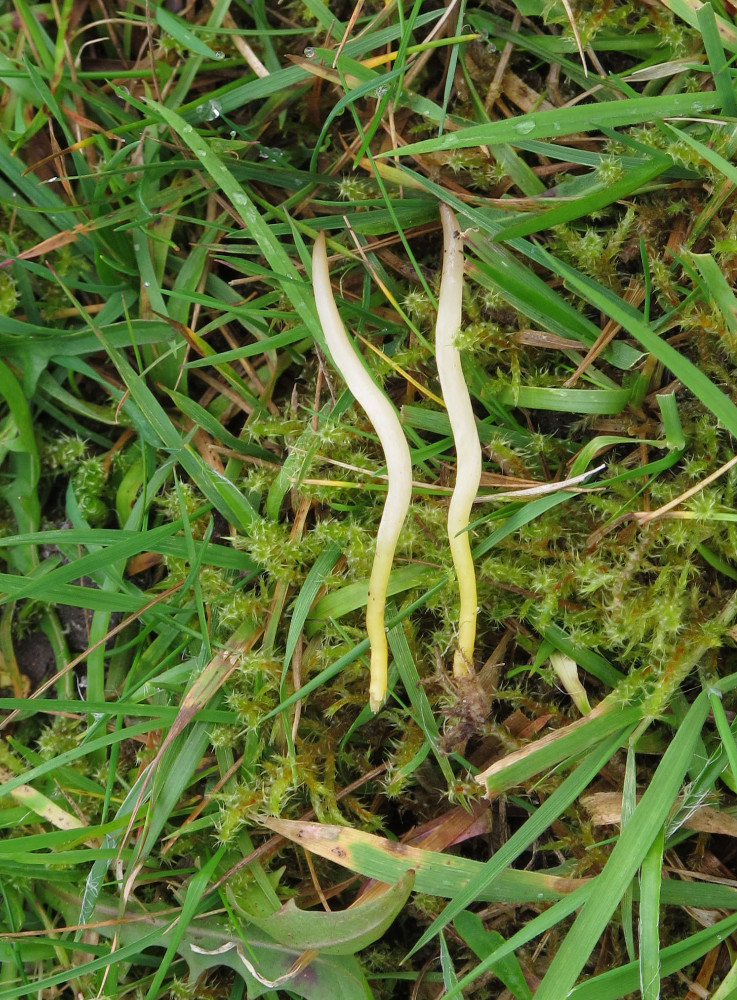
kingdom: Fungi
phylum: Basidiomycota
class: Agaricomycetes
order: Agaricales
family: Clavariaceae
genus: Clavaria
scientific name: Clavaria flavipes
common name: strågul køllesvamp
